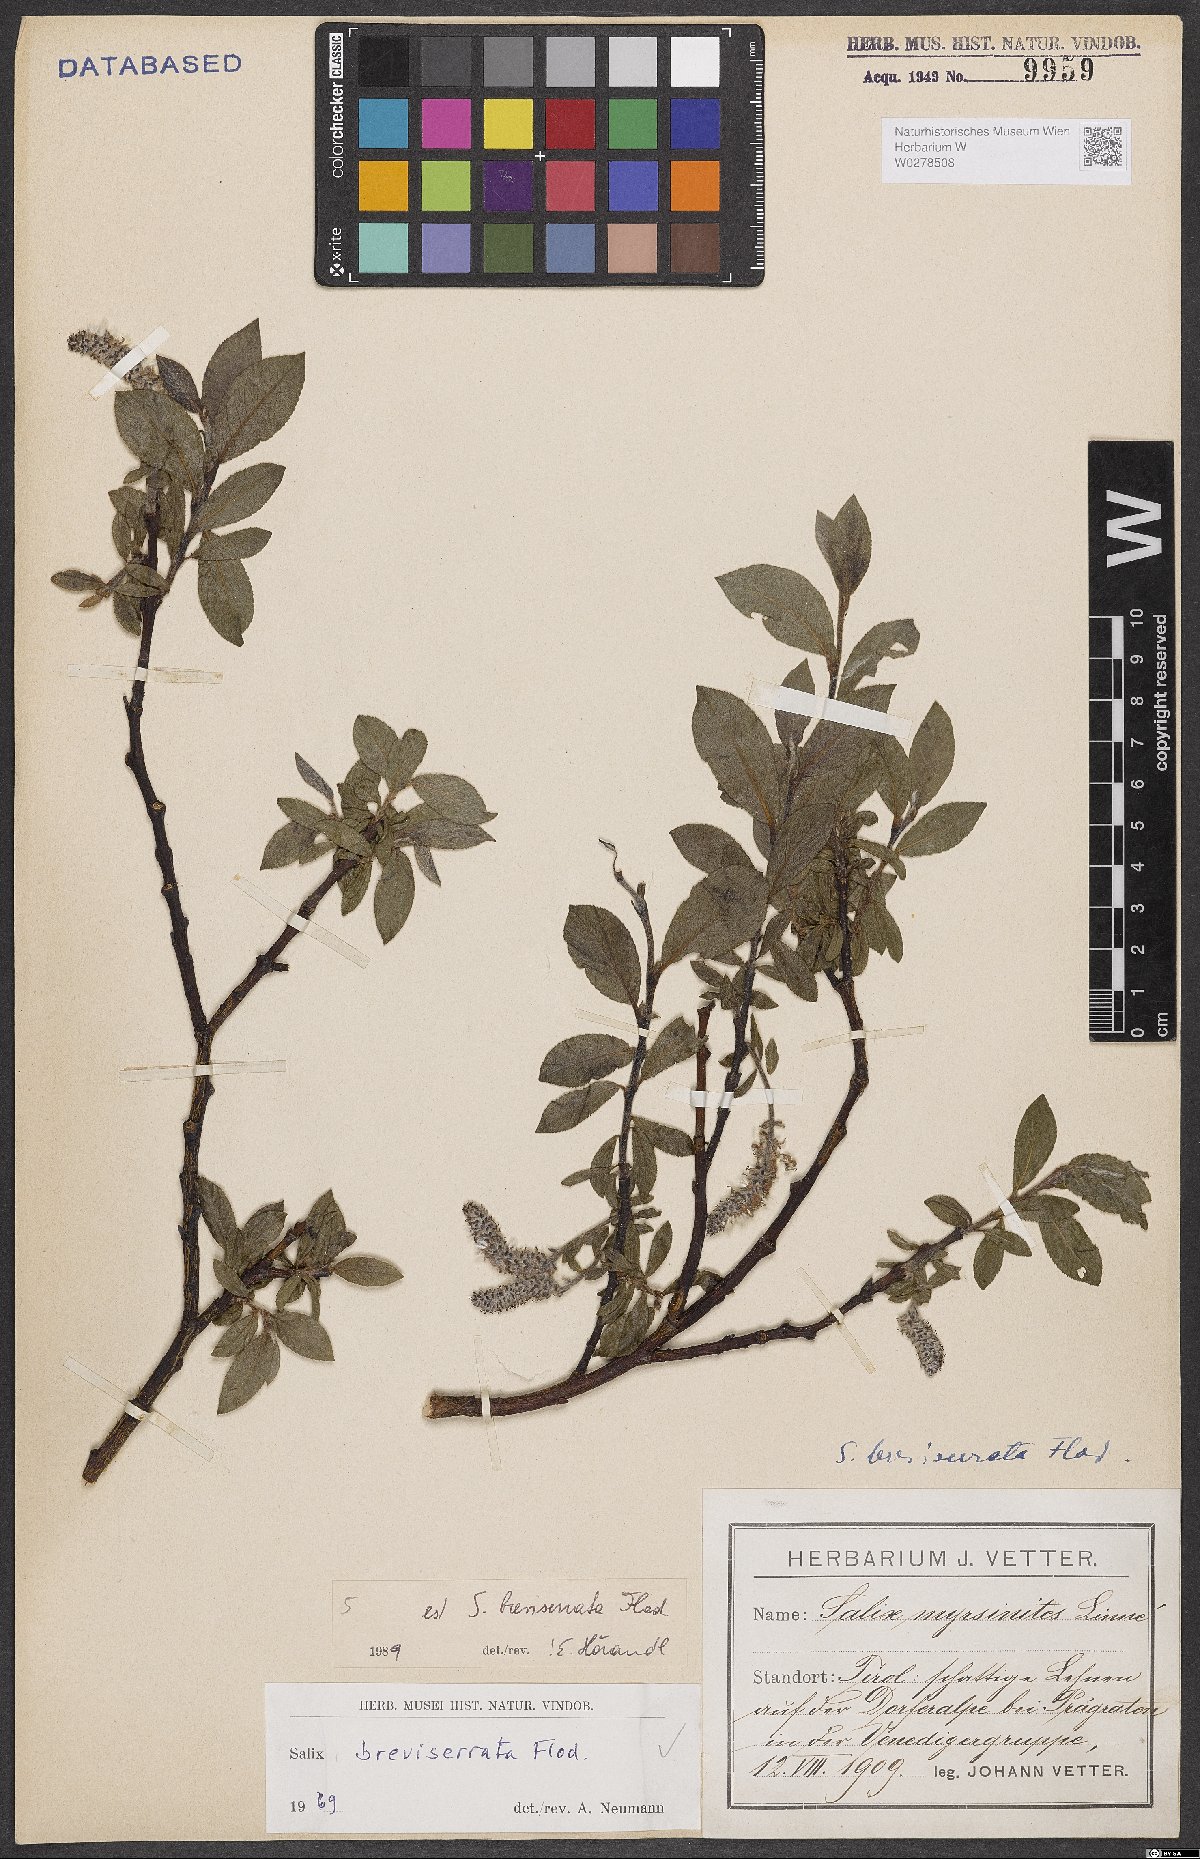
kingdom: Plantae
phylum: Tracheophyta
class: Magnoliopsida
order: Malpighiales
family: Salicaceae
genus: Salix
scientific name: Salix breviserrata
